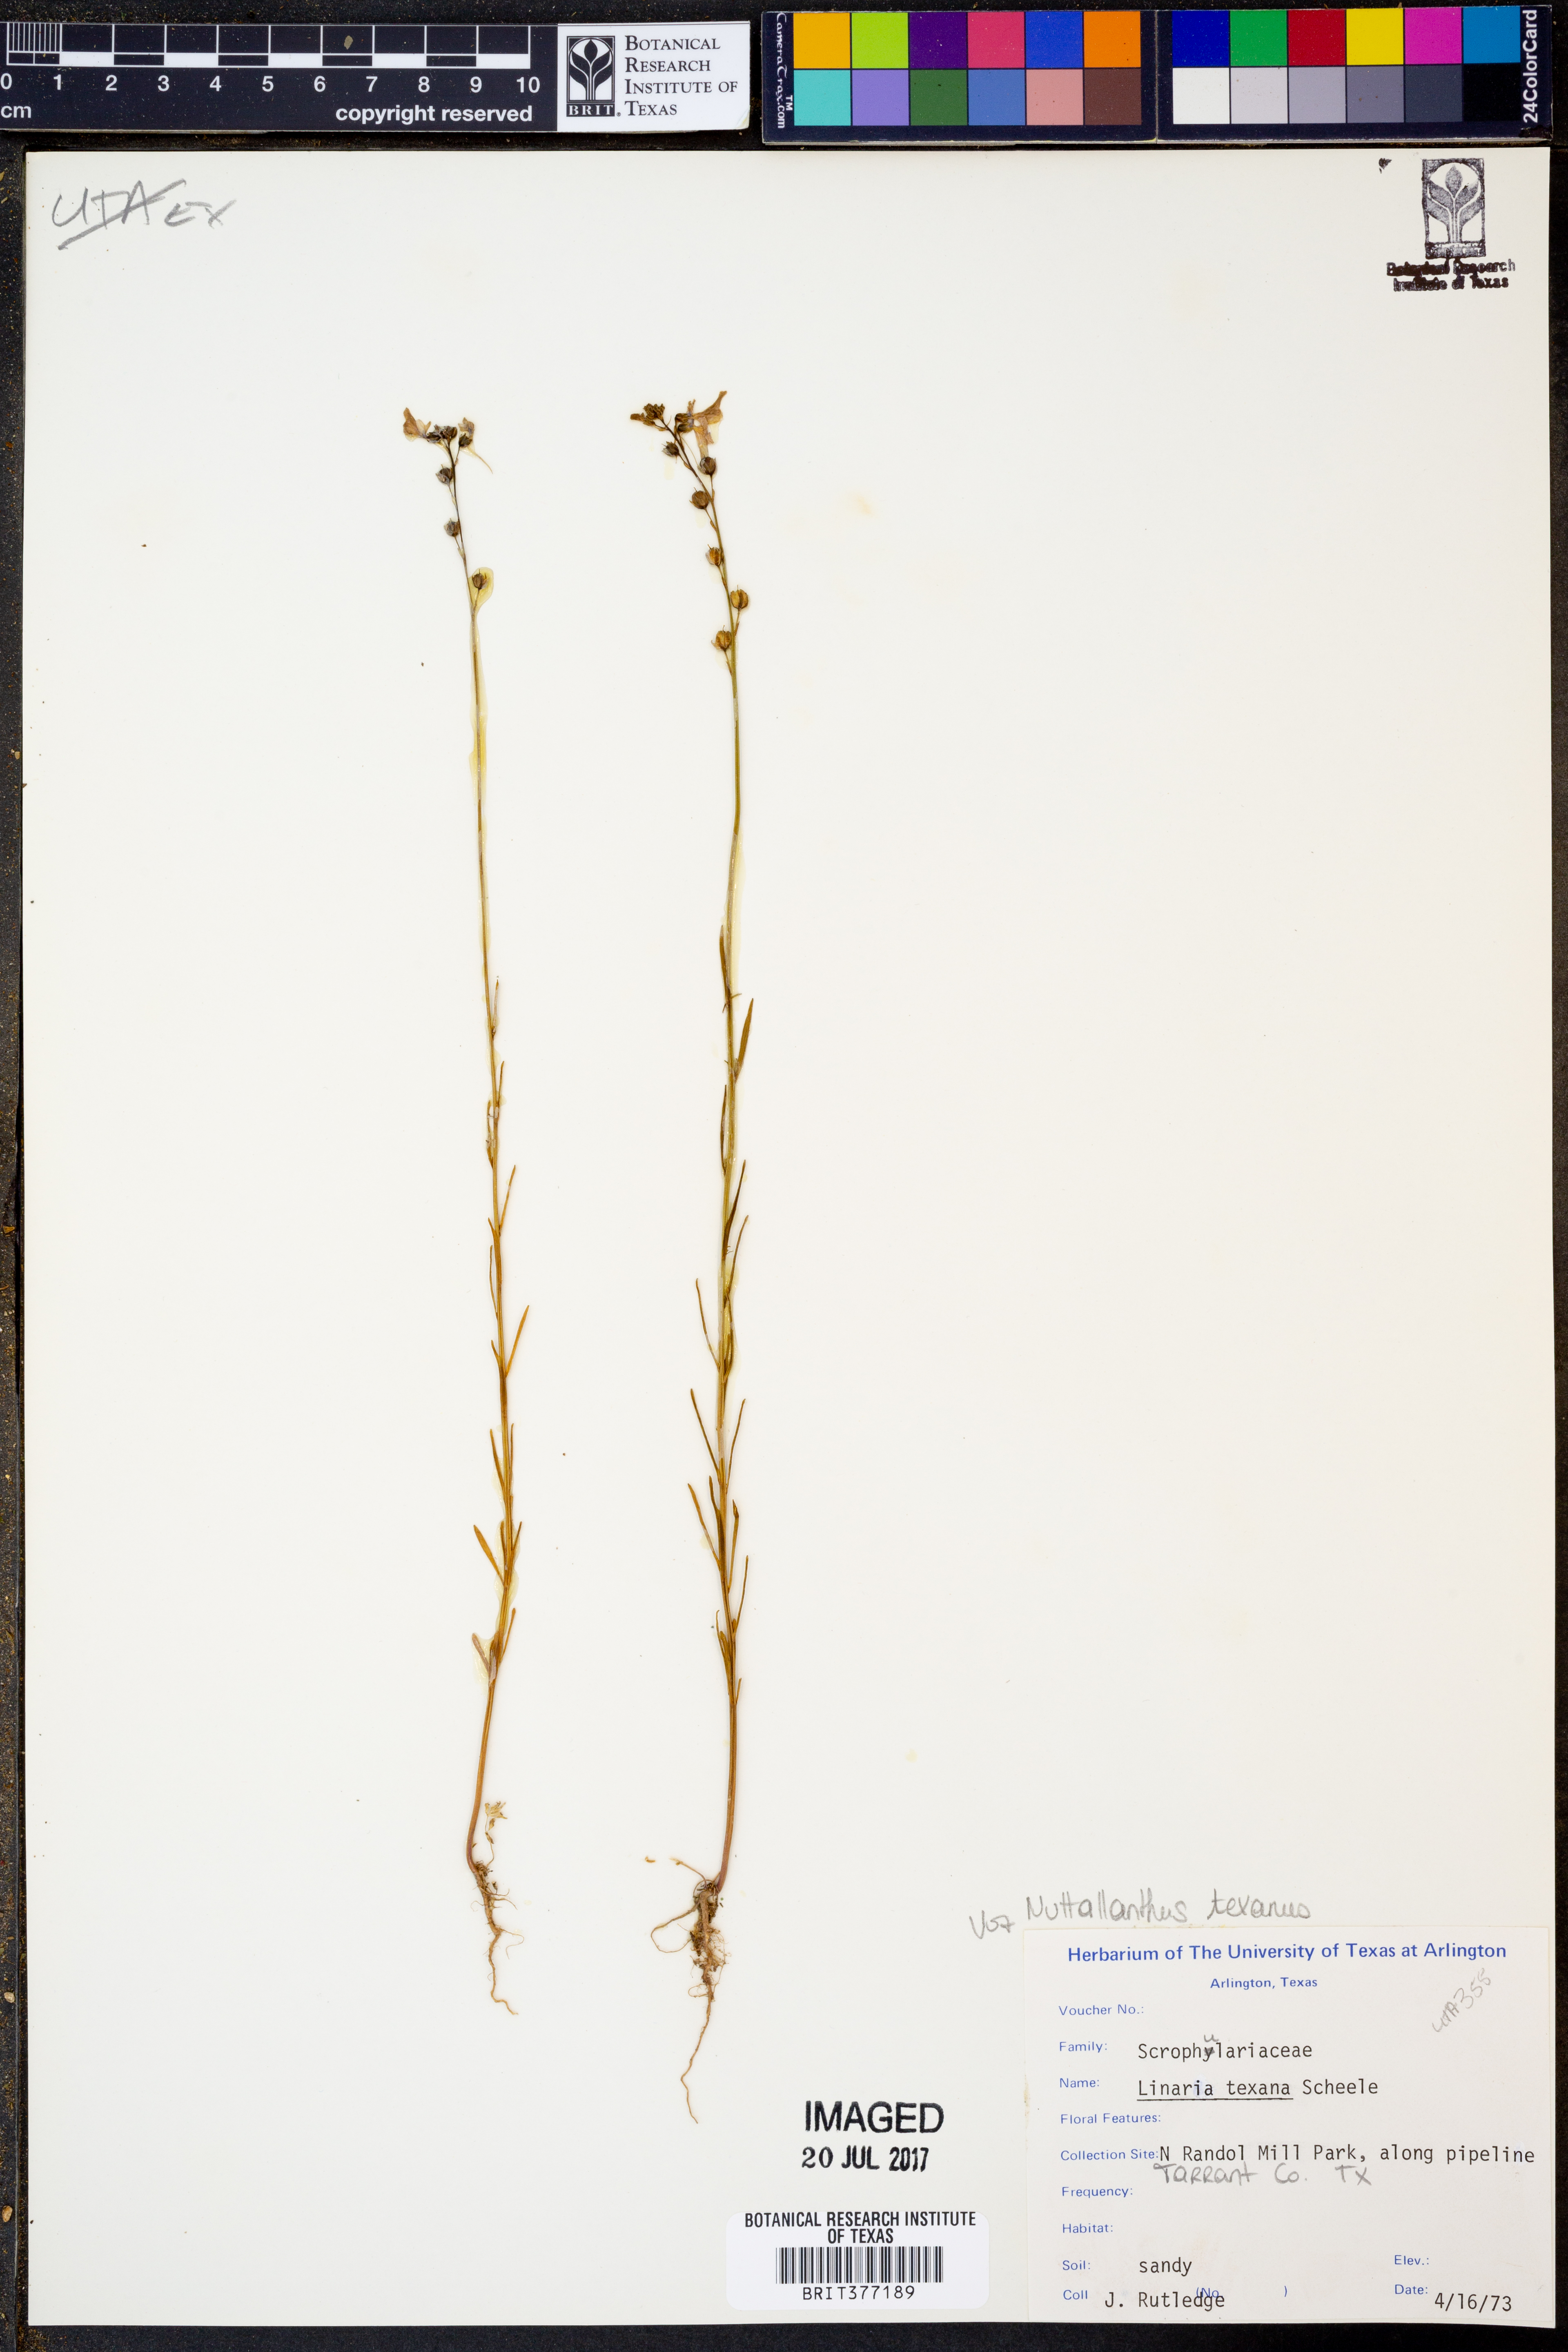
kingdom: Plantae
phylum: Tracheophyta
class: Magnoliopsida
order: Lamiales
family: Plantaginaceae
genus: Nuttallanthus
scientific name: Nuttallanthus texanus
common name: Texas toadflax
